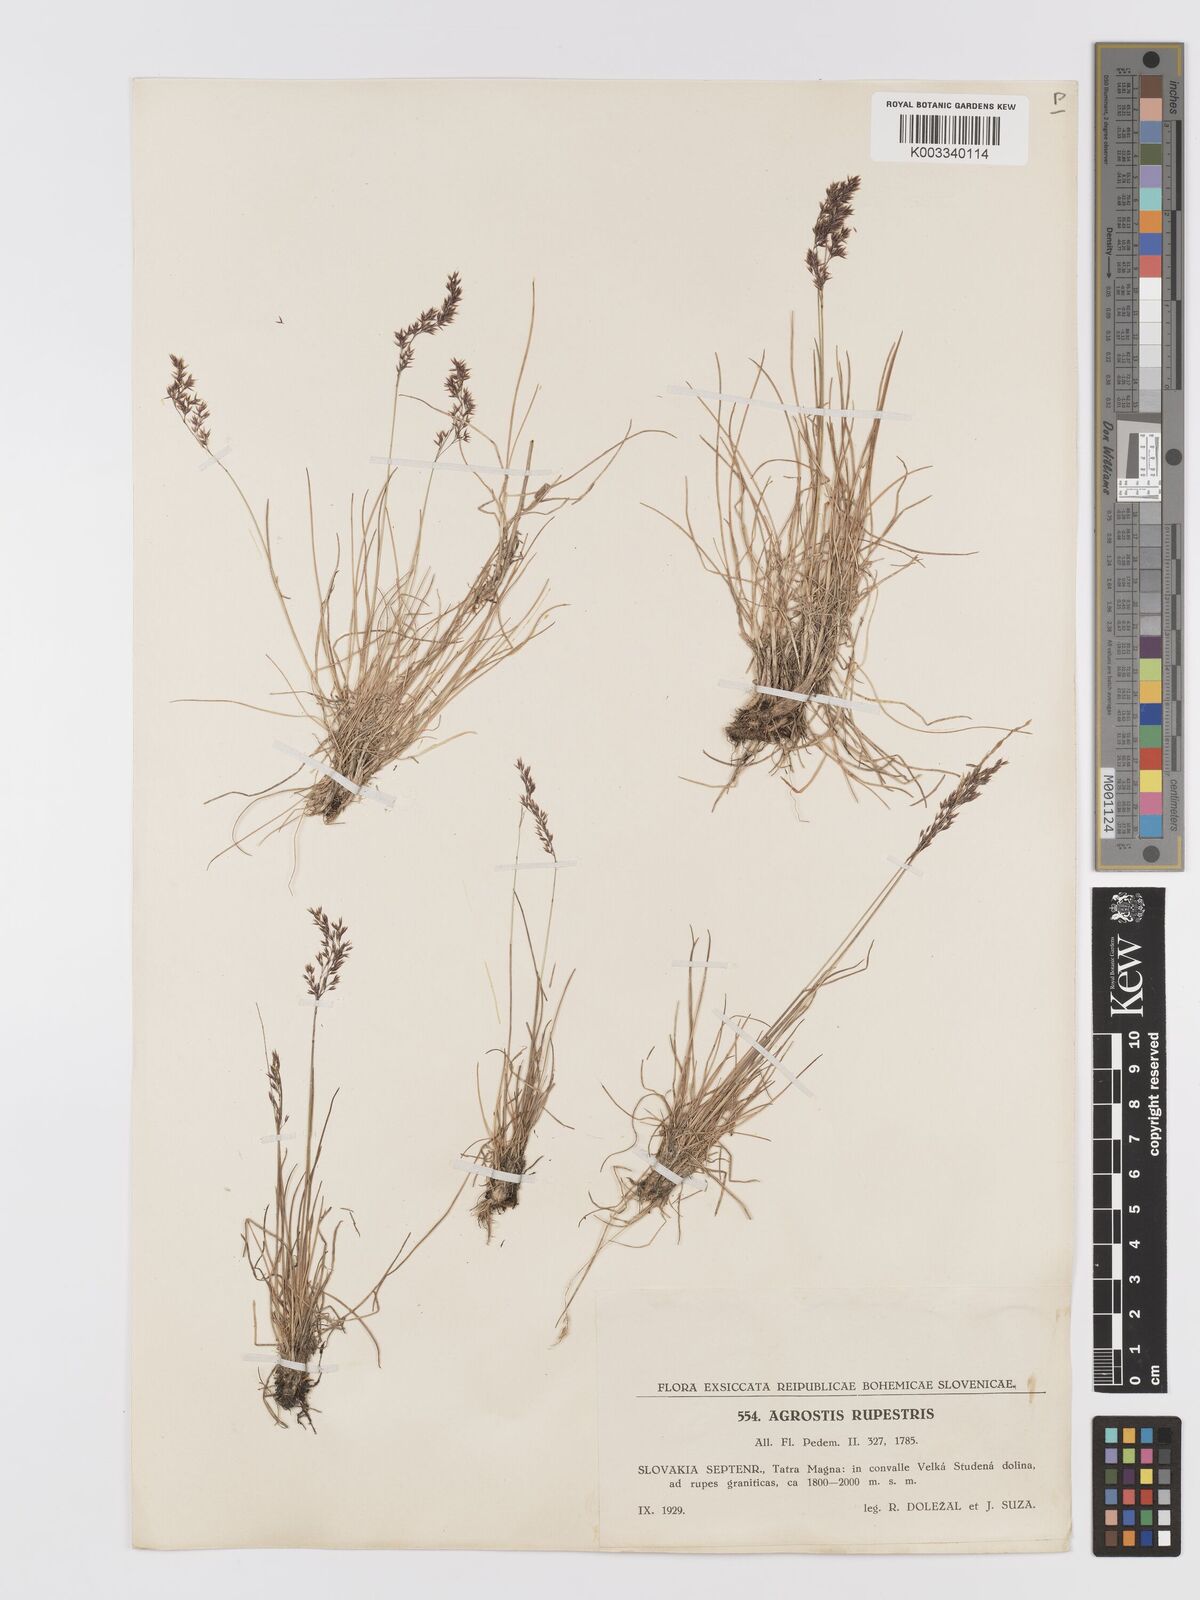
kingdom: Plantae
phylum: Tracheophyta
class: Liliopsida
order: Poales
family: Poaceae
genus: Agrostis
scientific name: Agrostis rupestris
